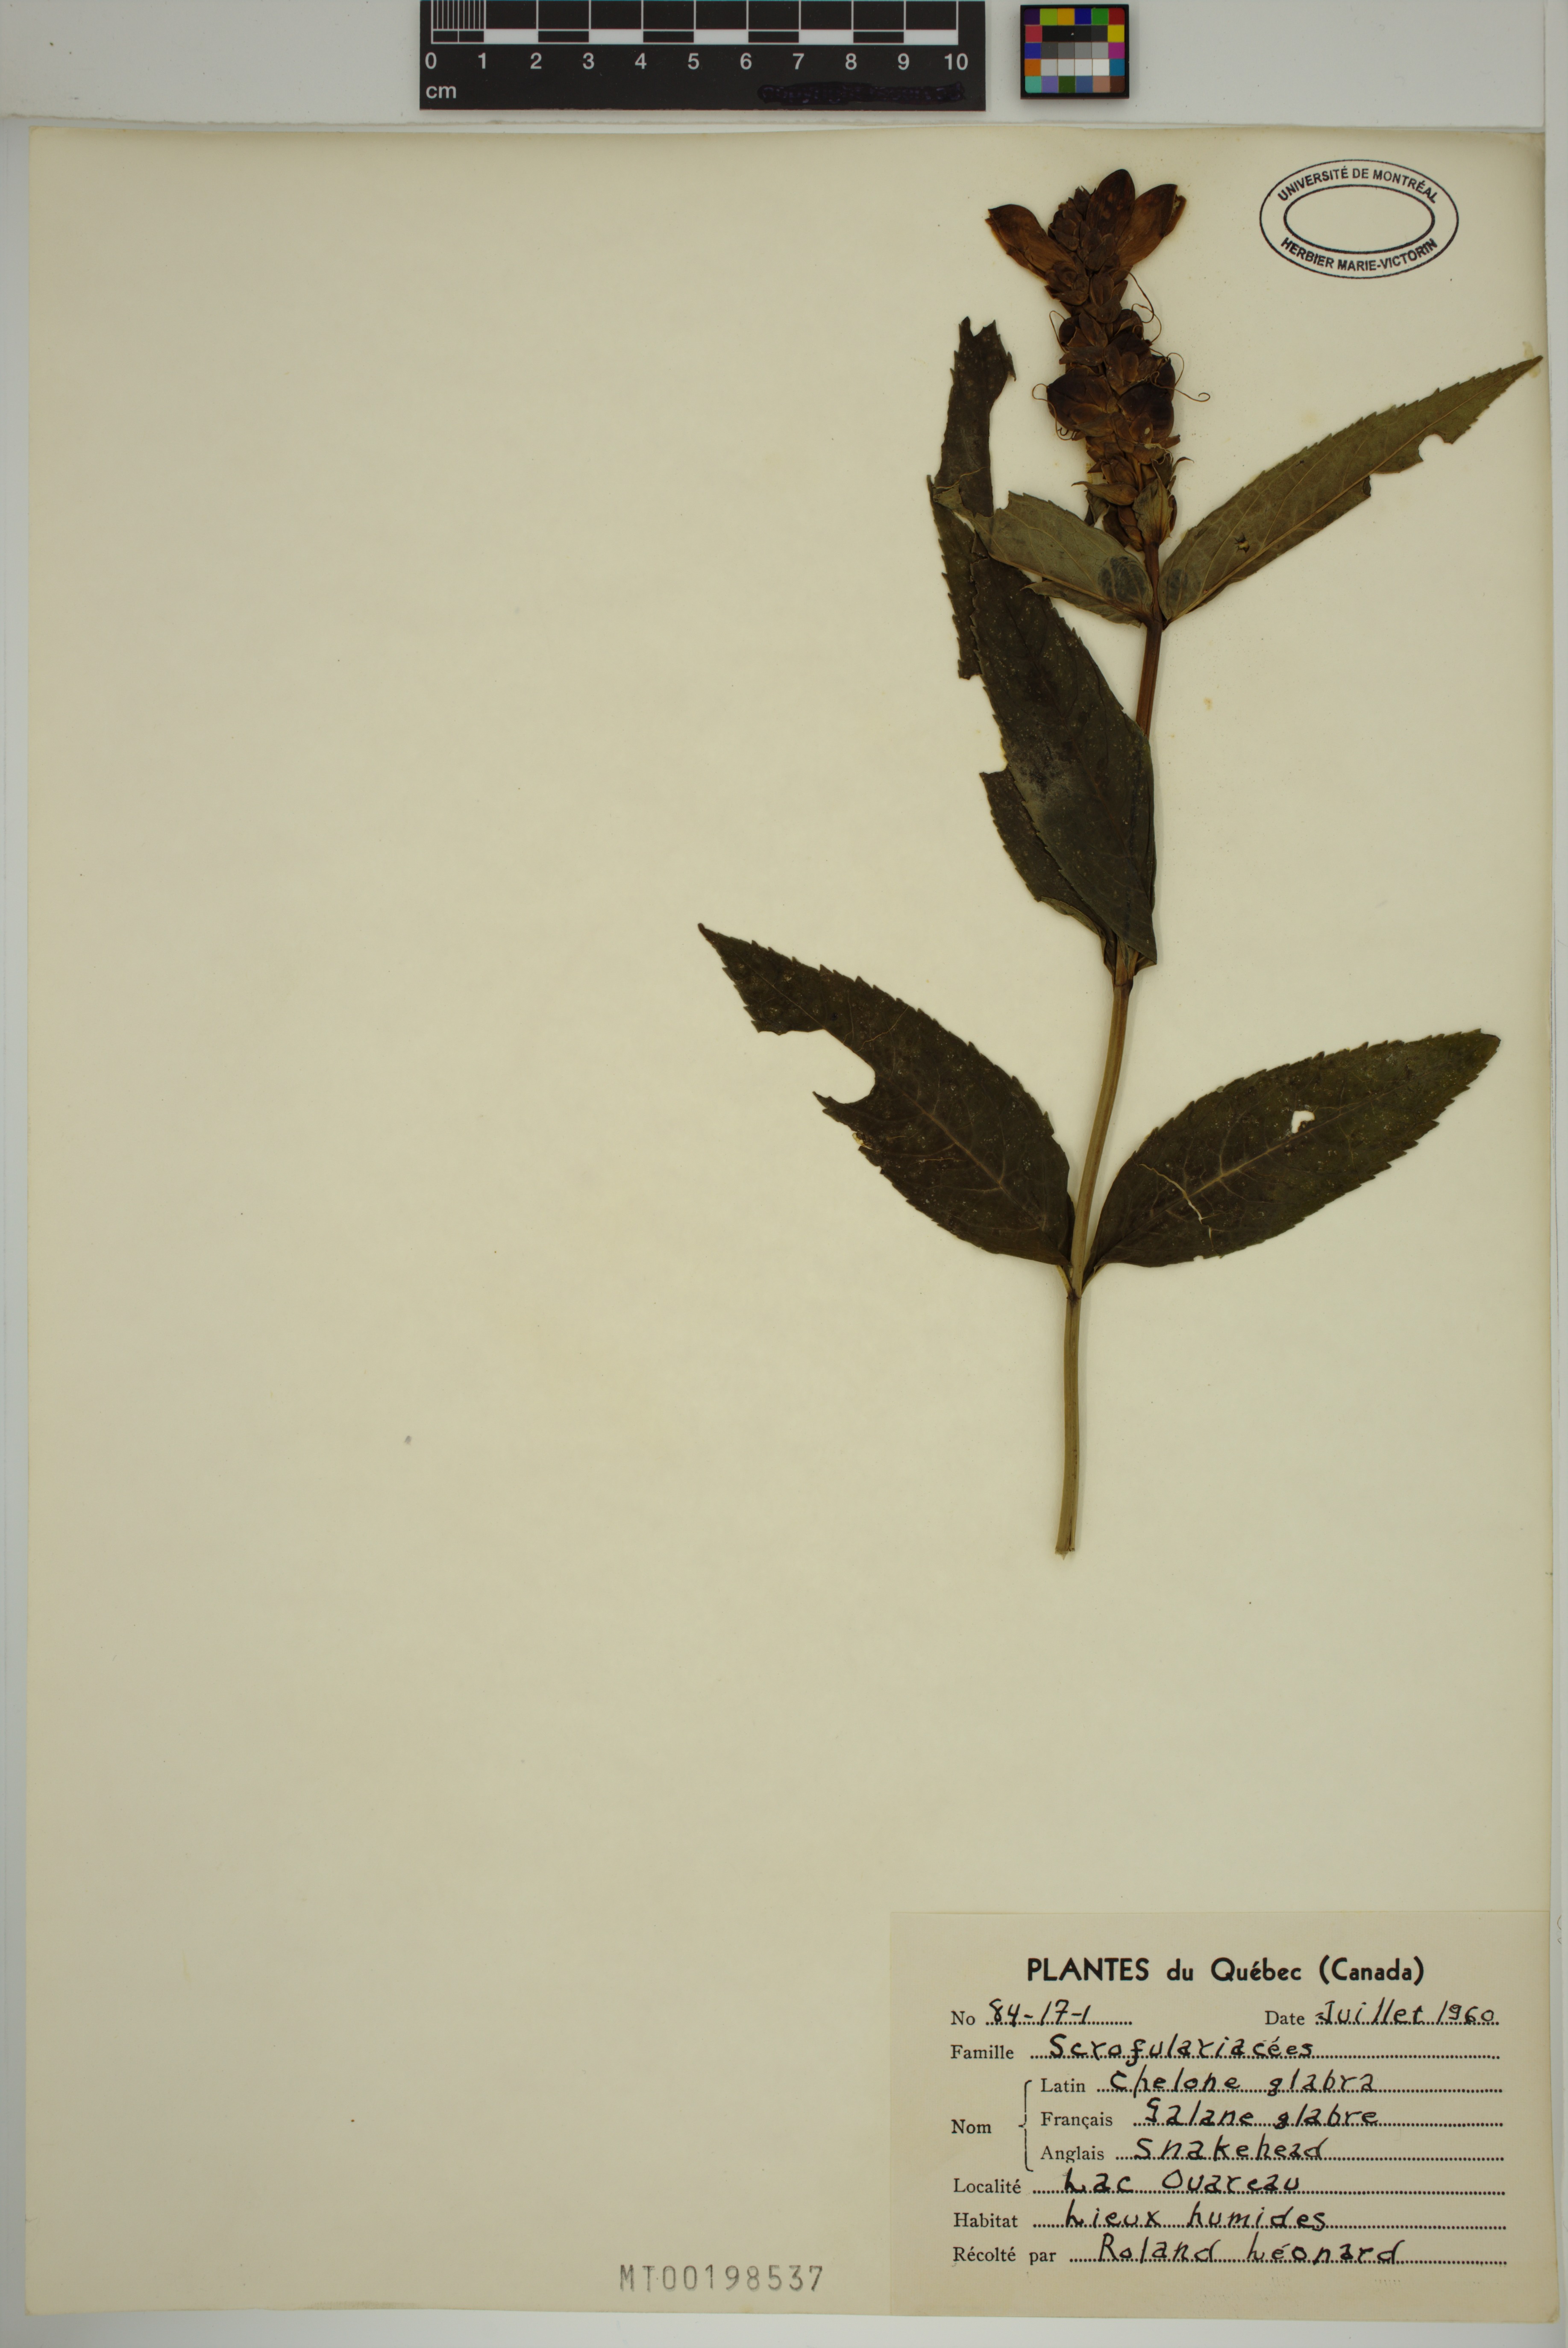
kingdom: Plantae
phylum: Tracheophyta
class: Magnoliopsida
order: Lamiales
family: Plantaginaceae
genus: Chelone
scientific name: Chelone glabra
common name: Snakehead
